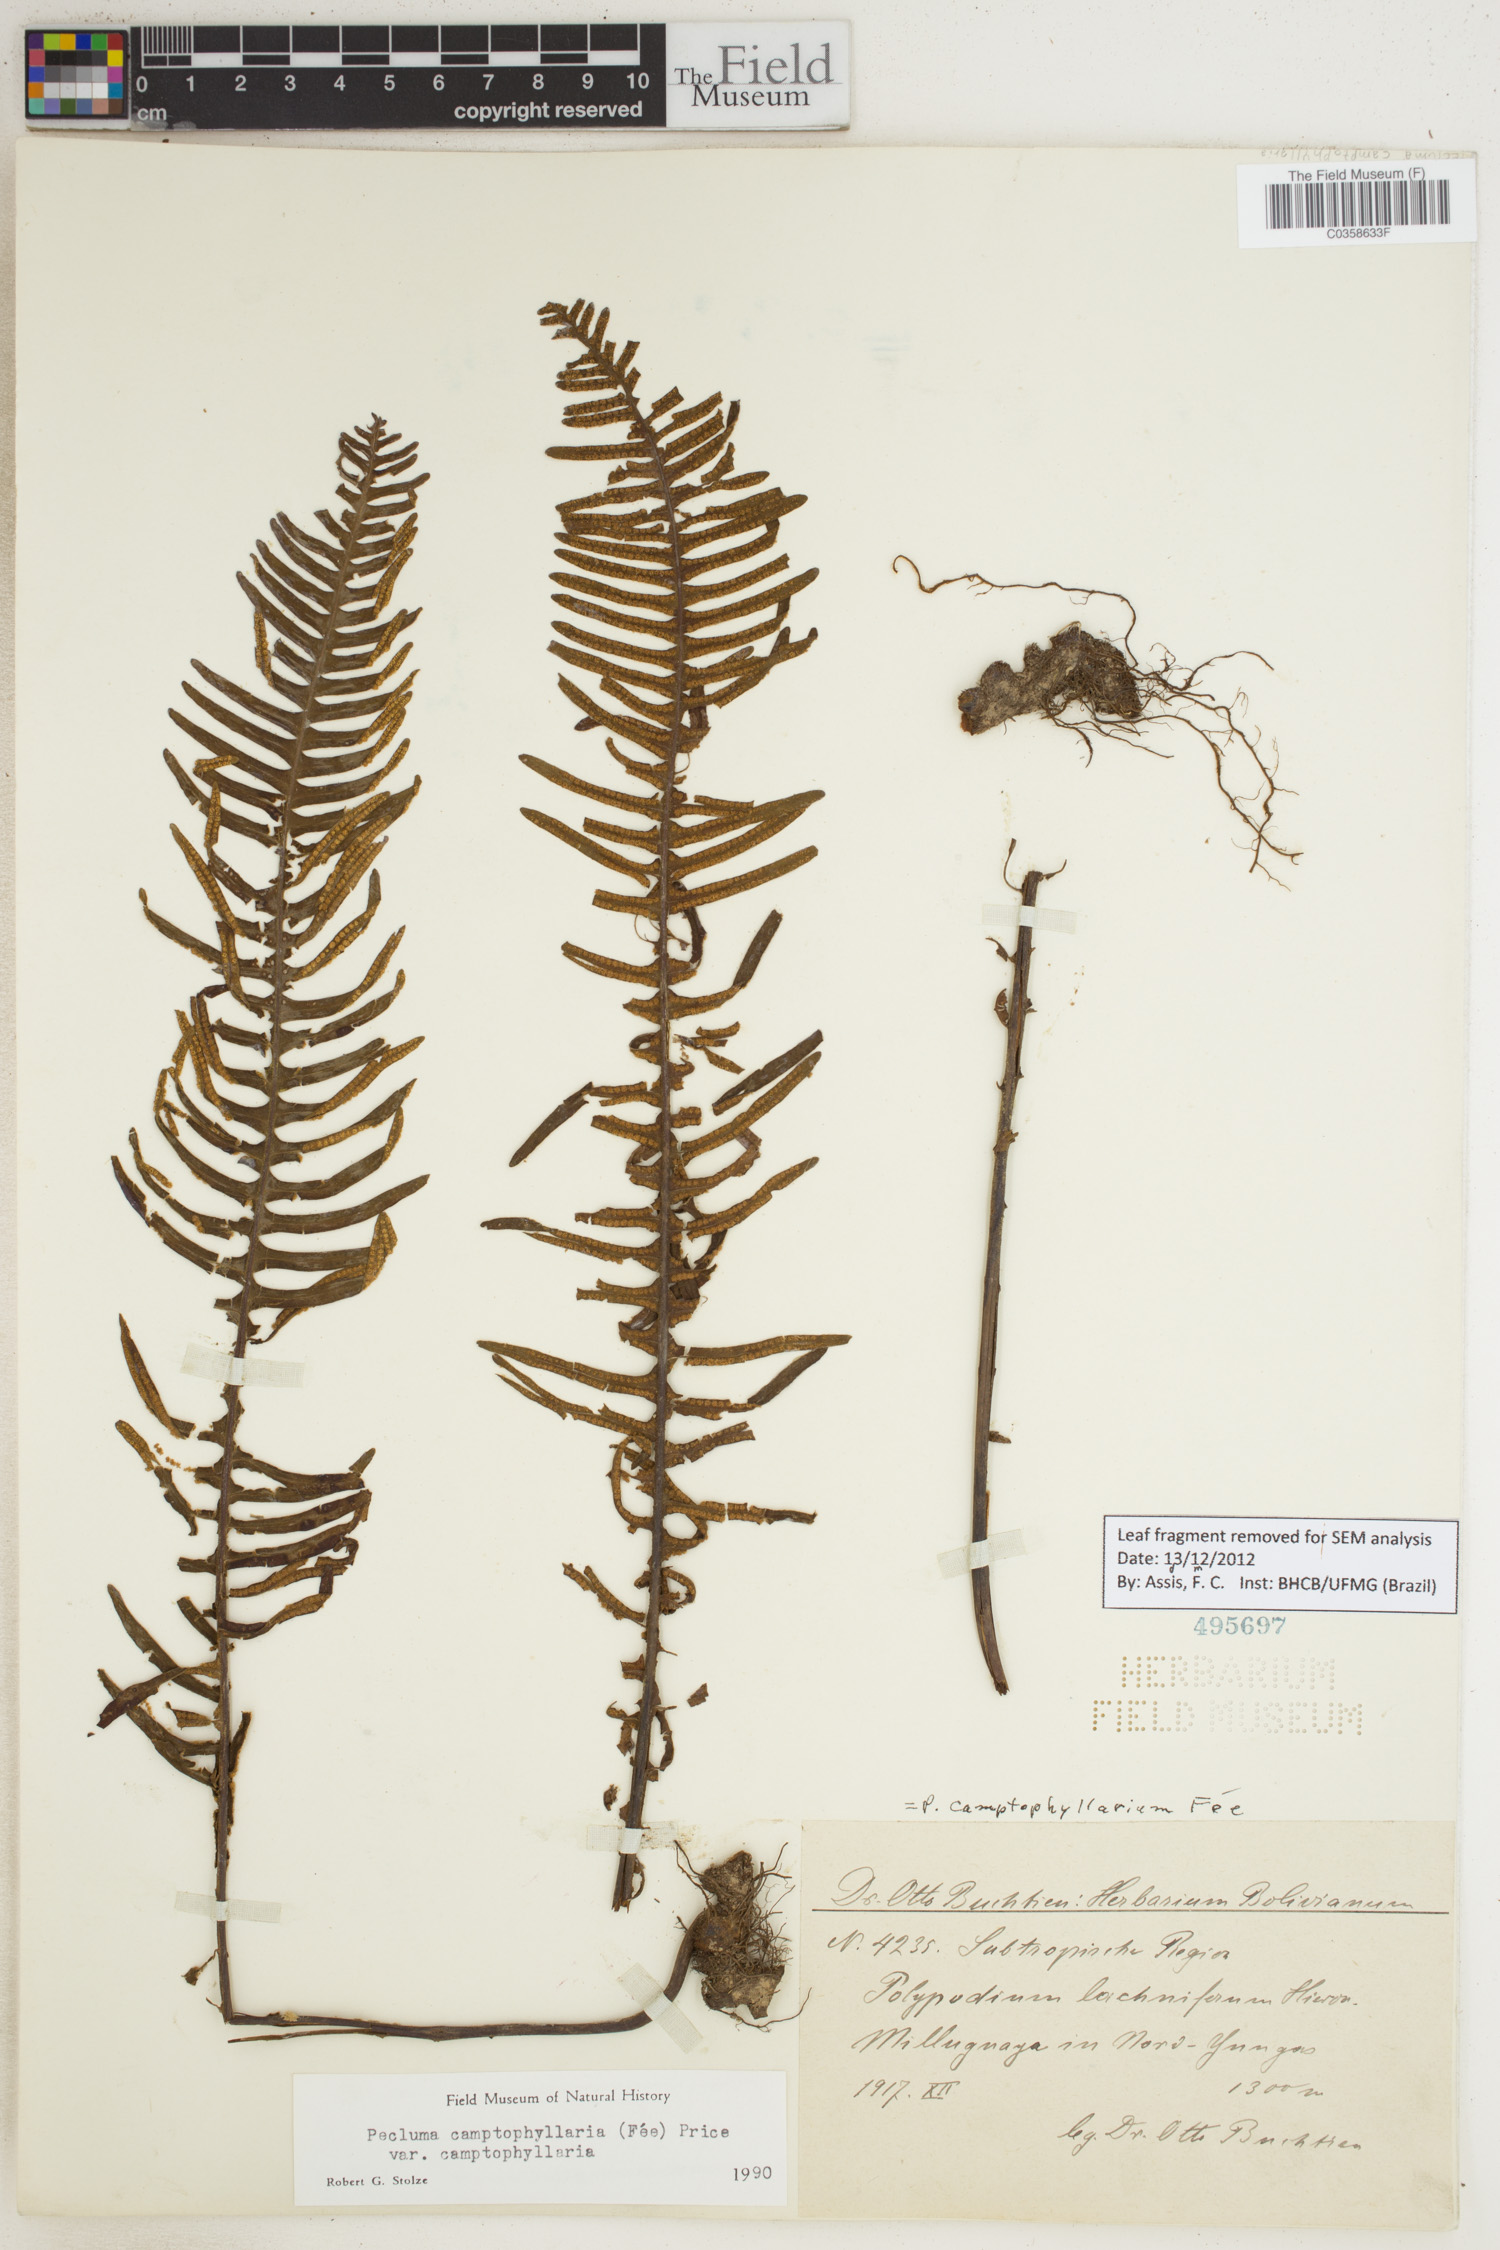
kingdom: Plantae
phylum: Tracheophyta
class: Polypodiopsida
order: Polypodiales
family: Polypodiaceae
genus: Pecluma
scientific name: Pecluma camptophyllaria
